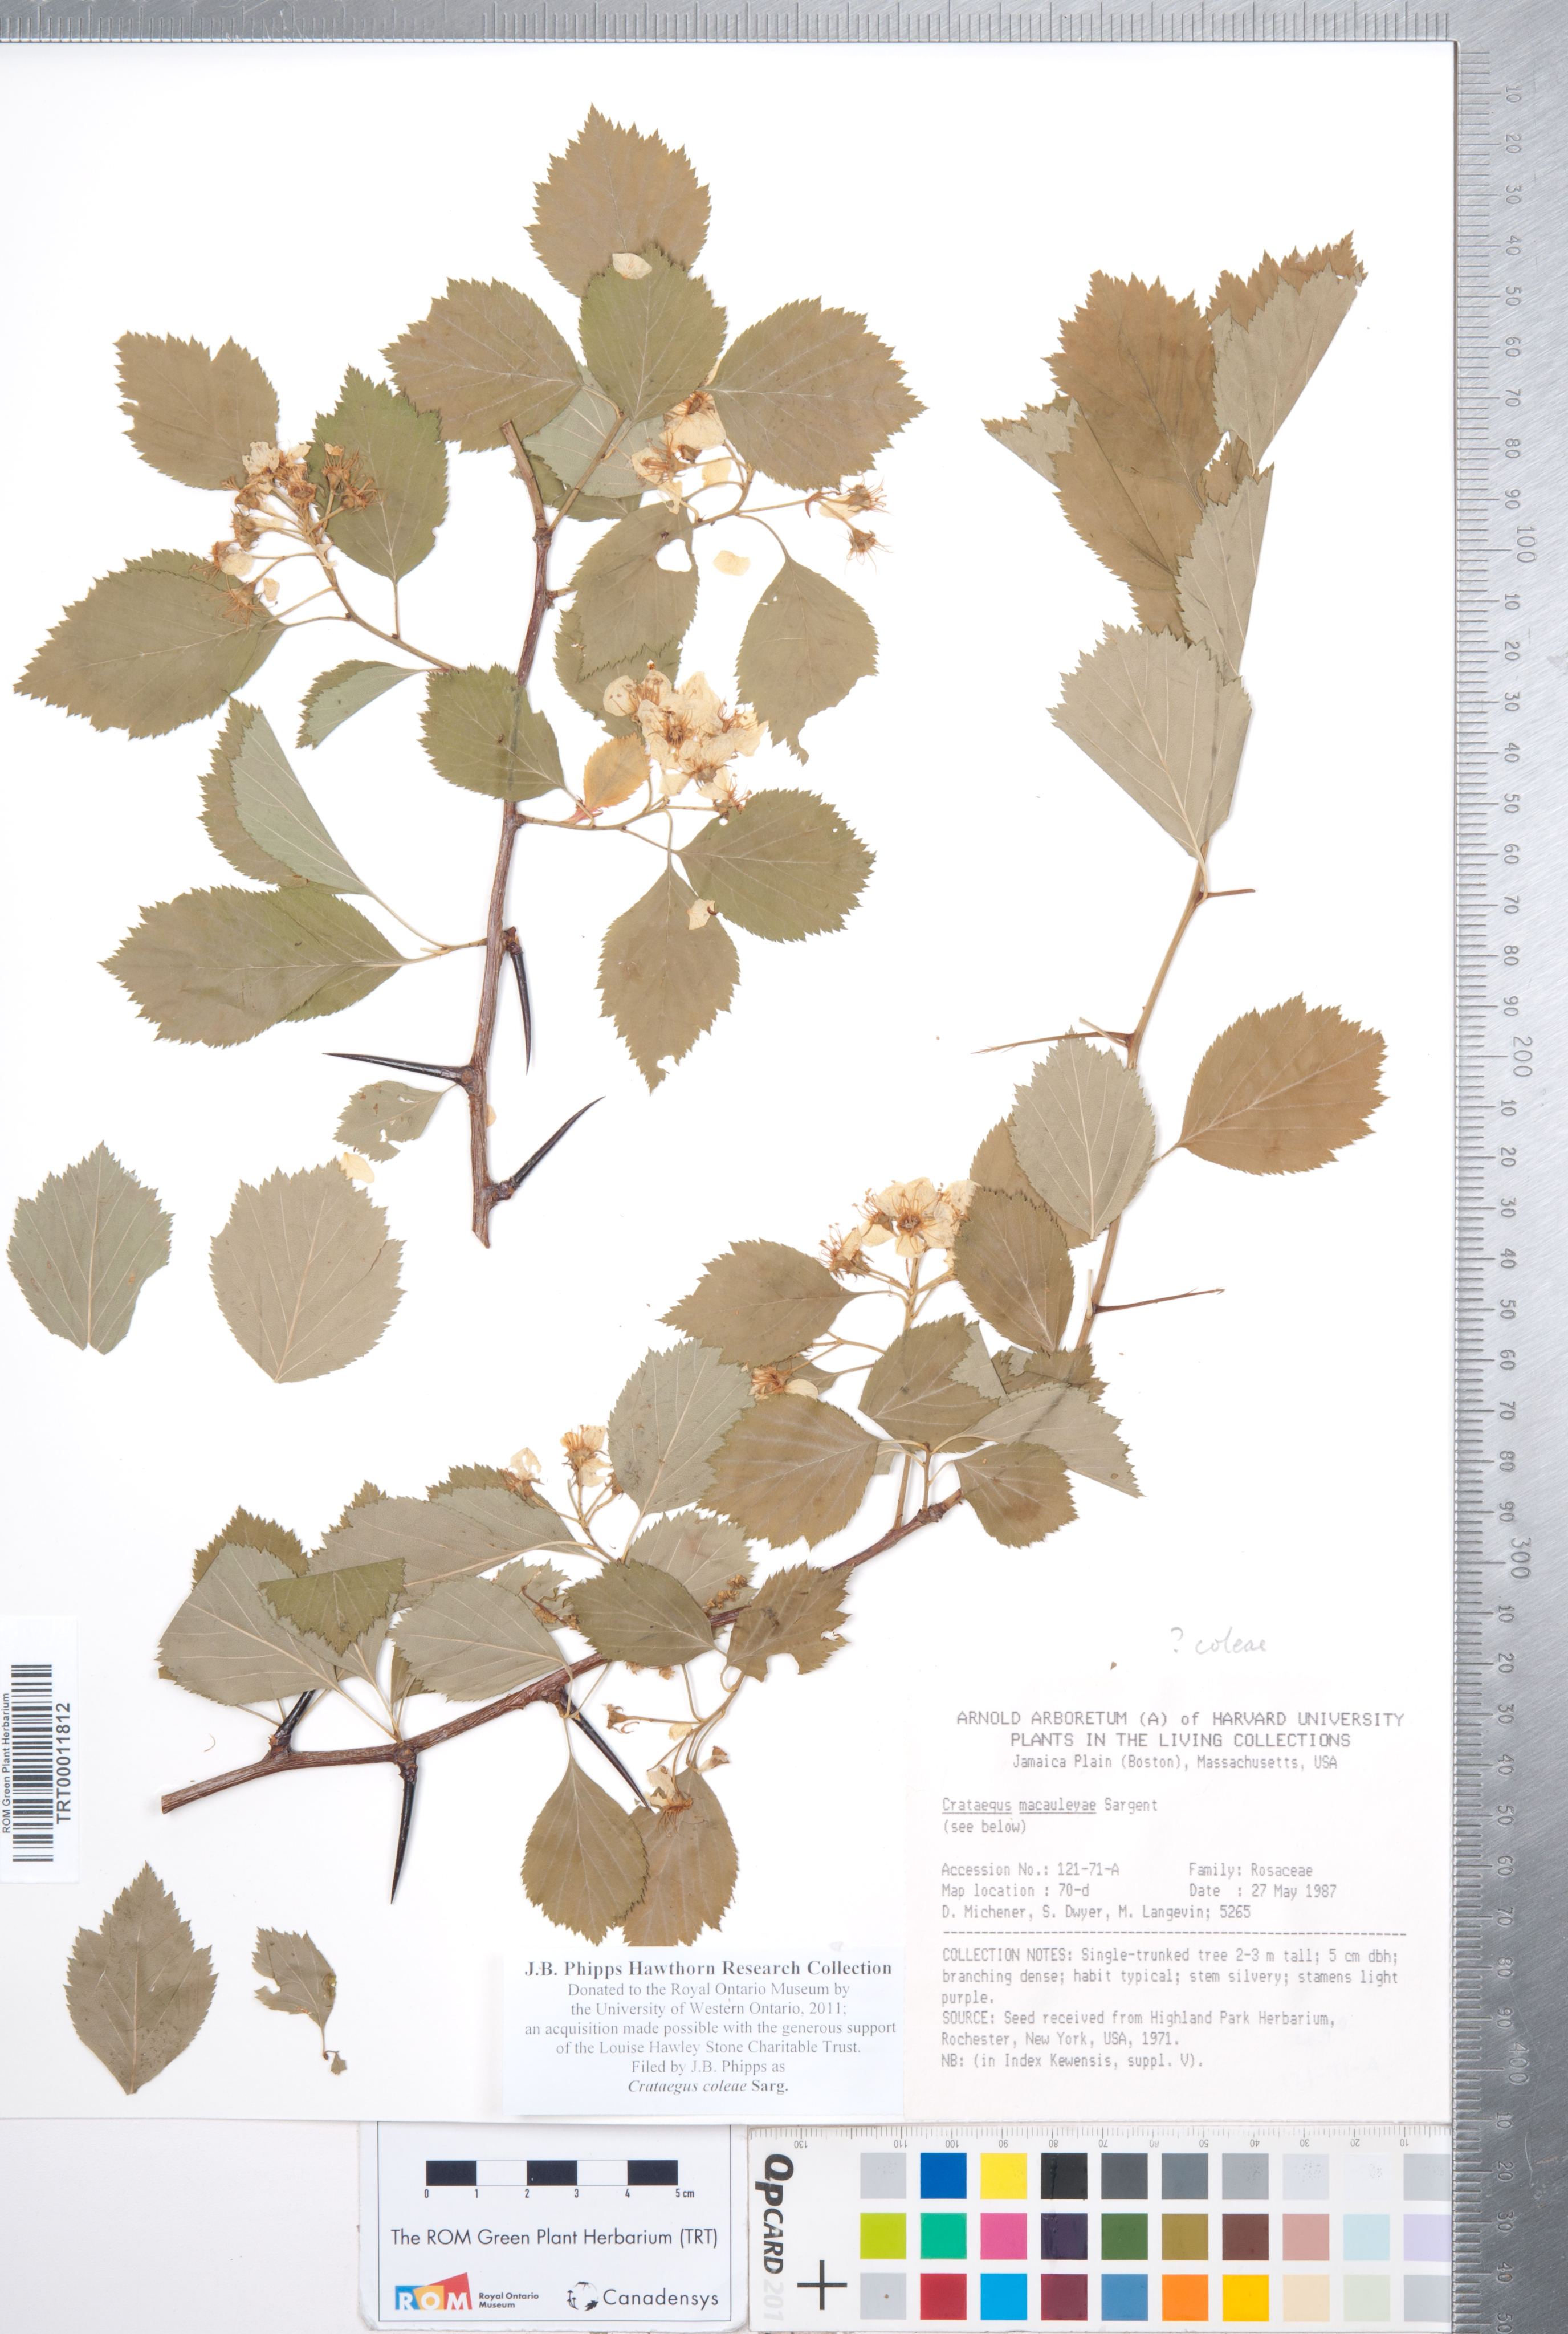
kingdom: Plantae
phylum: Tracheophyta
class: Magnoliopsida
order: Rosales
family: Rosaceae
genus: Crataegus
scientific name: Crataegus coleae
